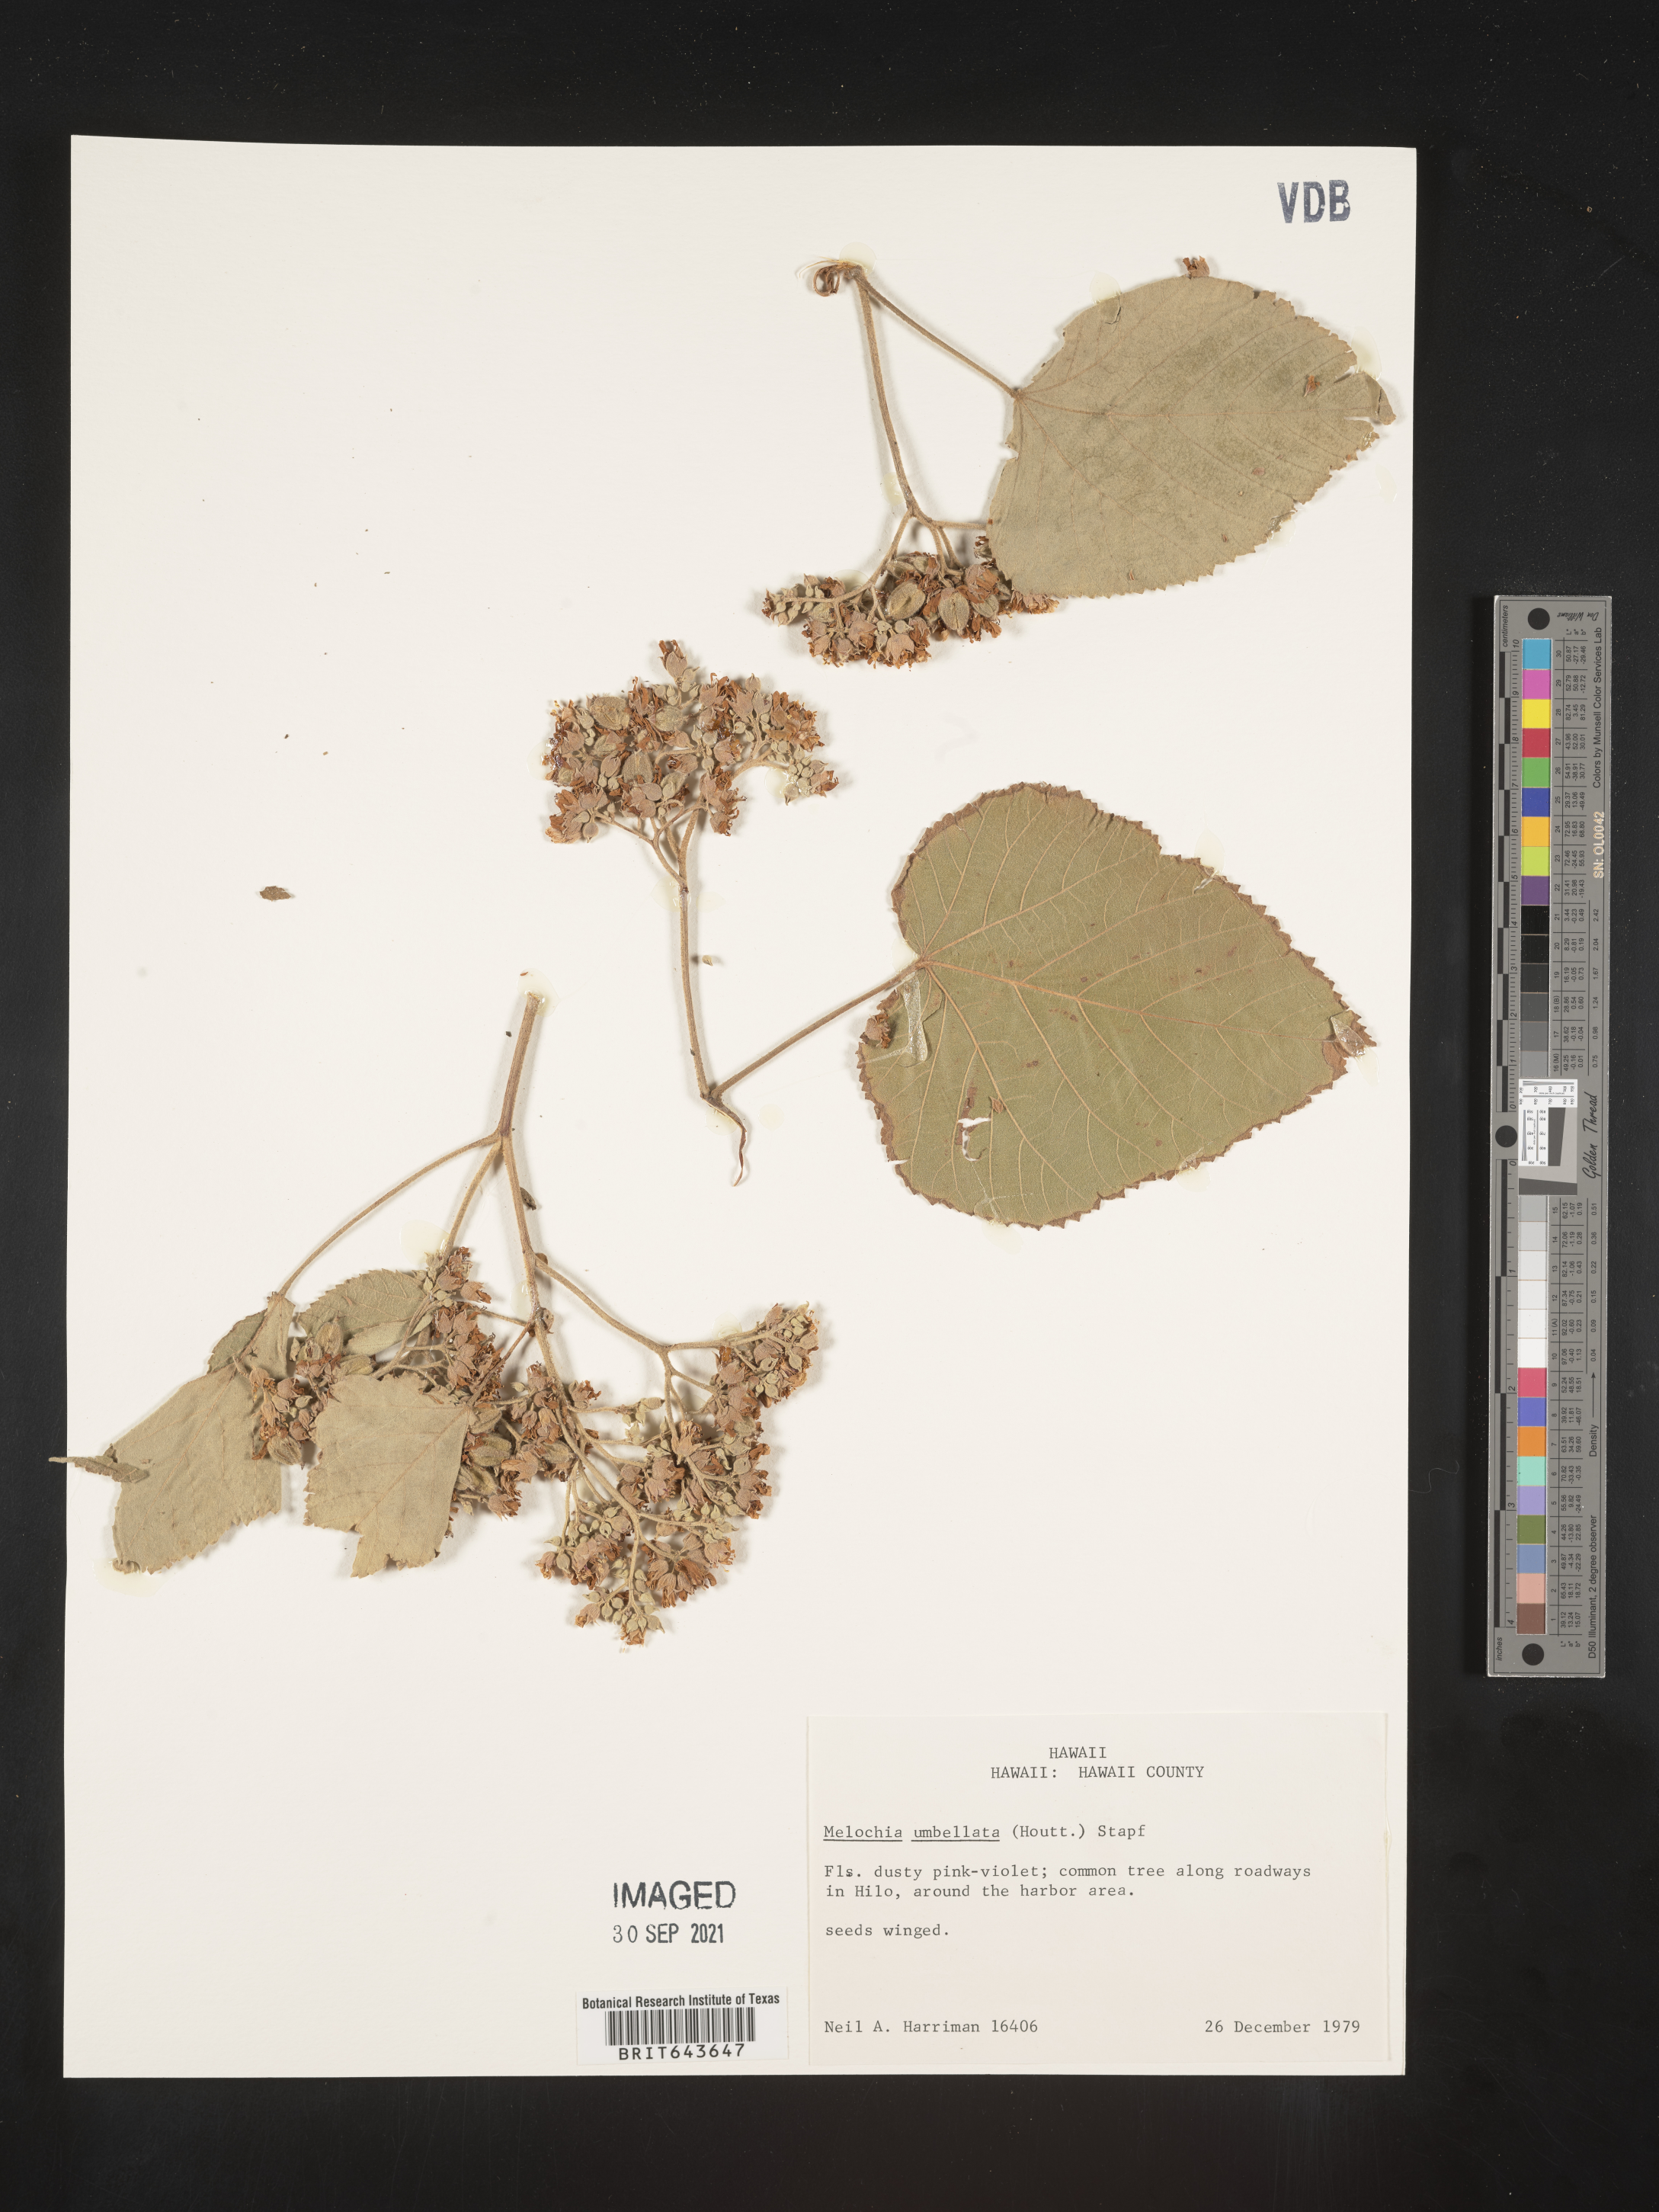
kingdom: Plantae
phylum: Tracheophyta
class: Magnoliopsida
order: Malvales
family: Malvaceae
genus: Melochia
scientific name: Melochia
